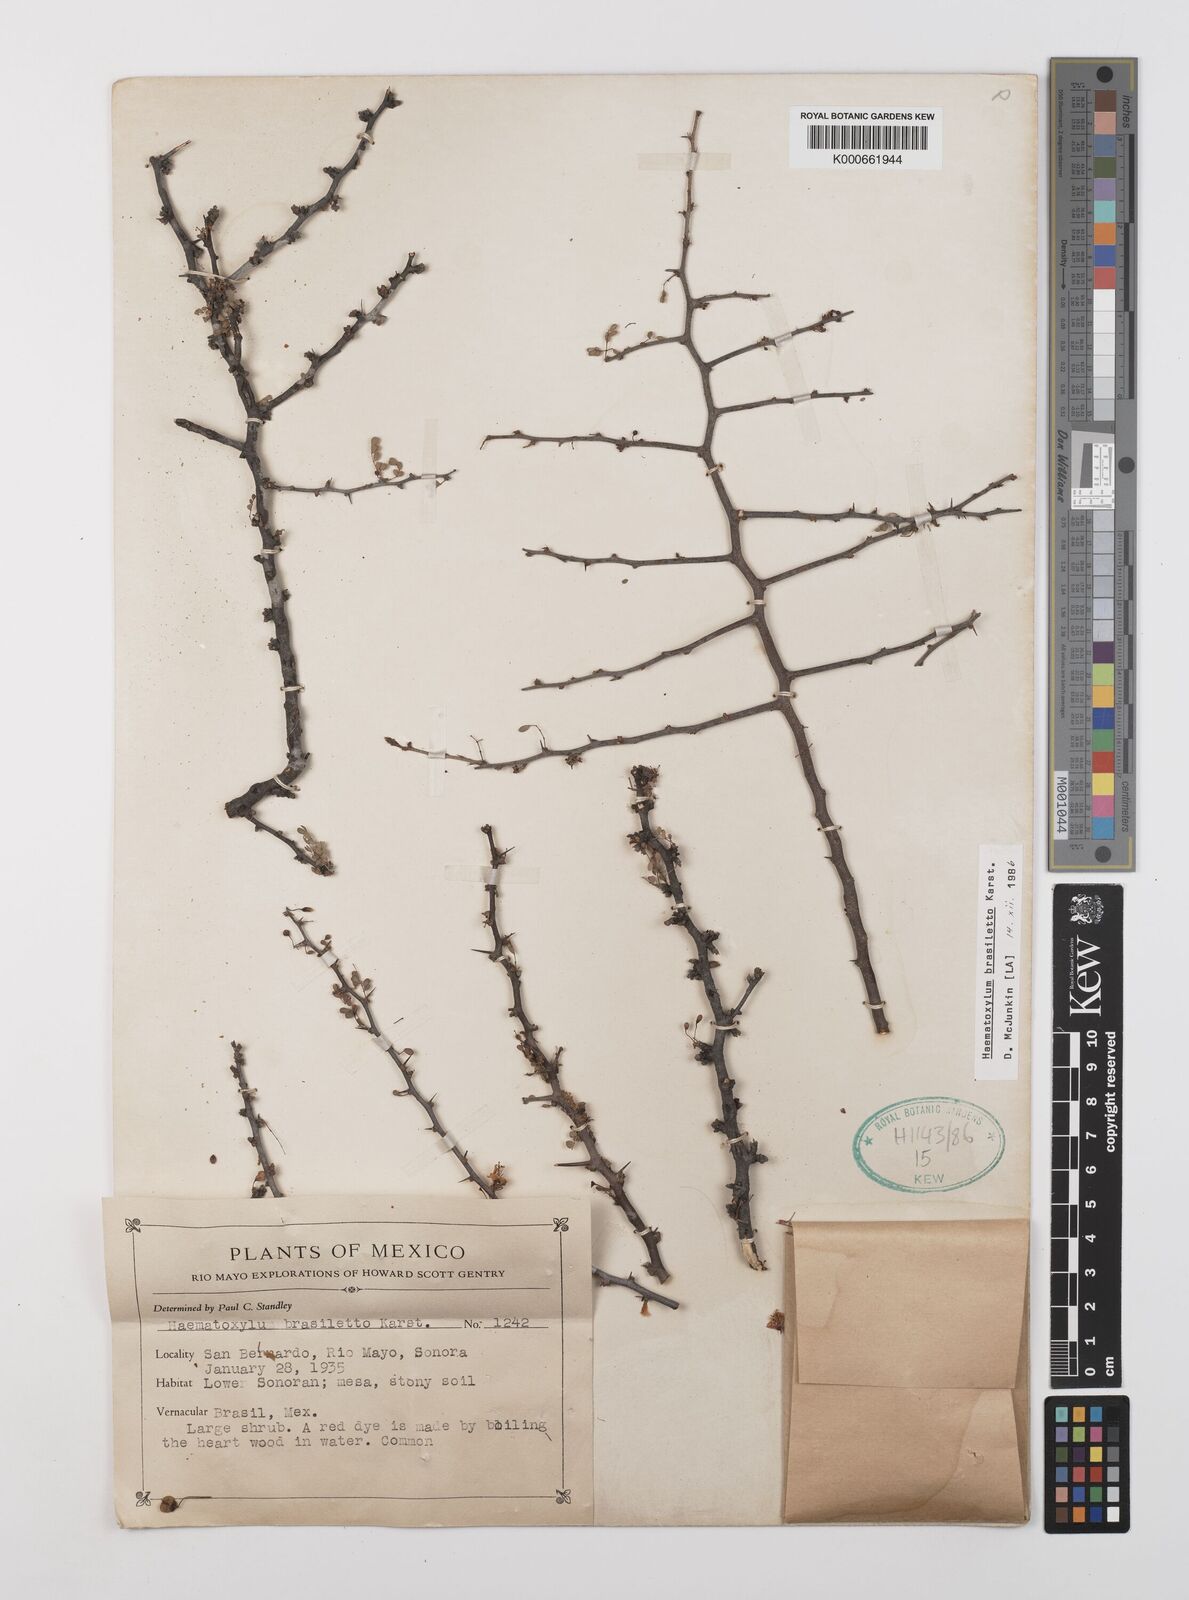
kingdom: Plantae
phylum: Tracheophyta
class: Magnoliopsida
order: Fabales
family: Fabaceae
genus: Haematoxylum
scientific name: Haematoxylum brasiletto
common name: Peachwood
